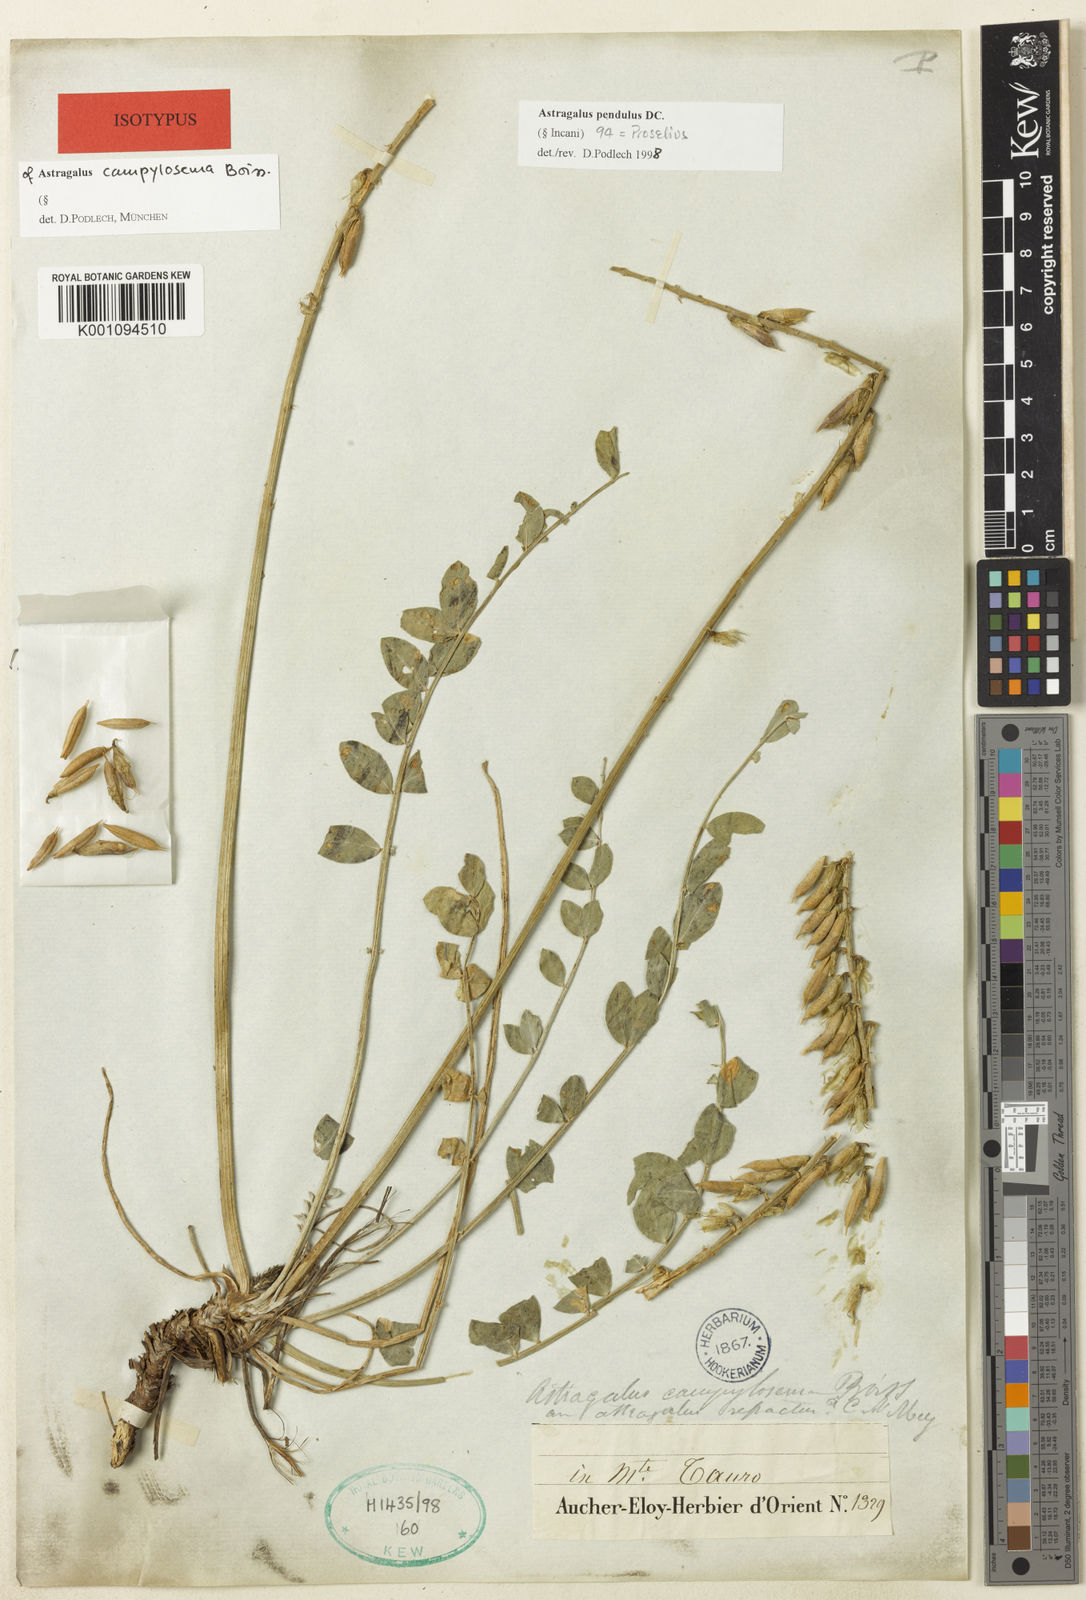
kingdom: Plantae
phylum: Tracheophyta
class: Magnoliopsida
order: Fabales
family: Fabaceae
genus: Astragalus
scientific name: Astragalus
